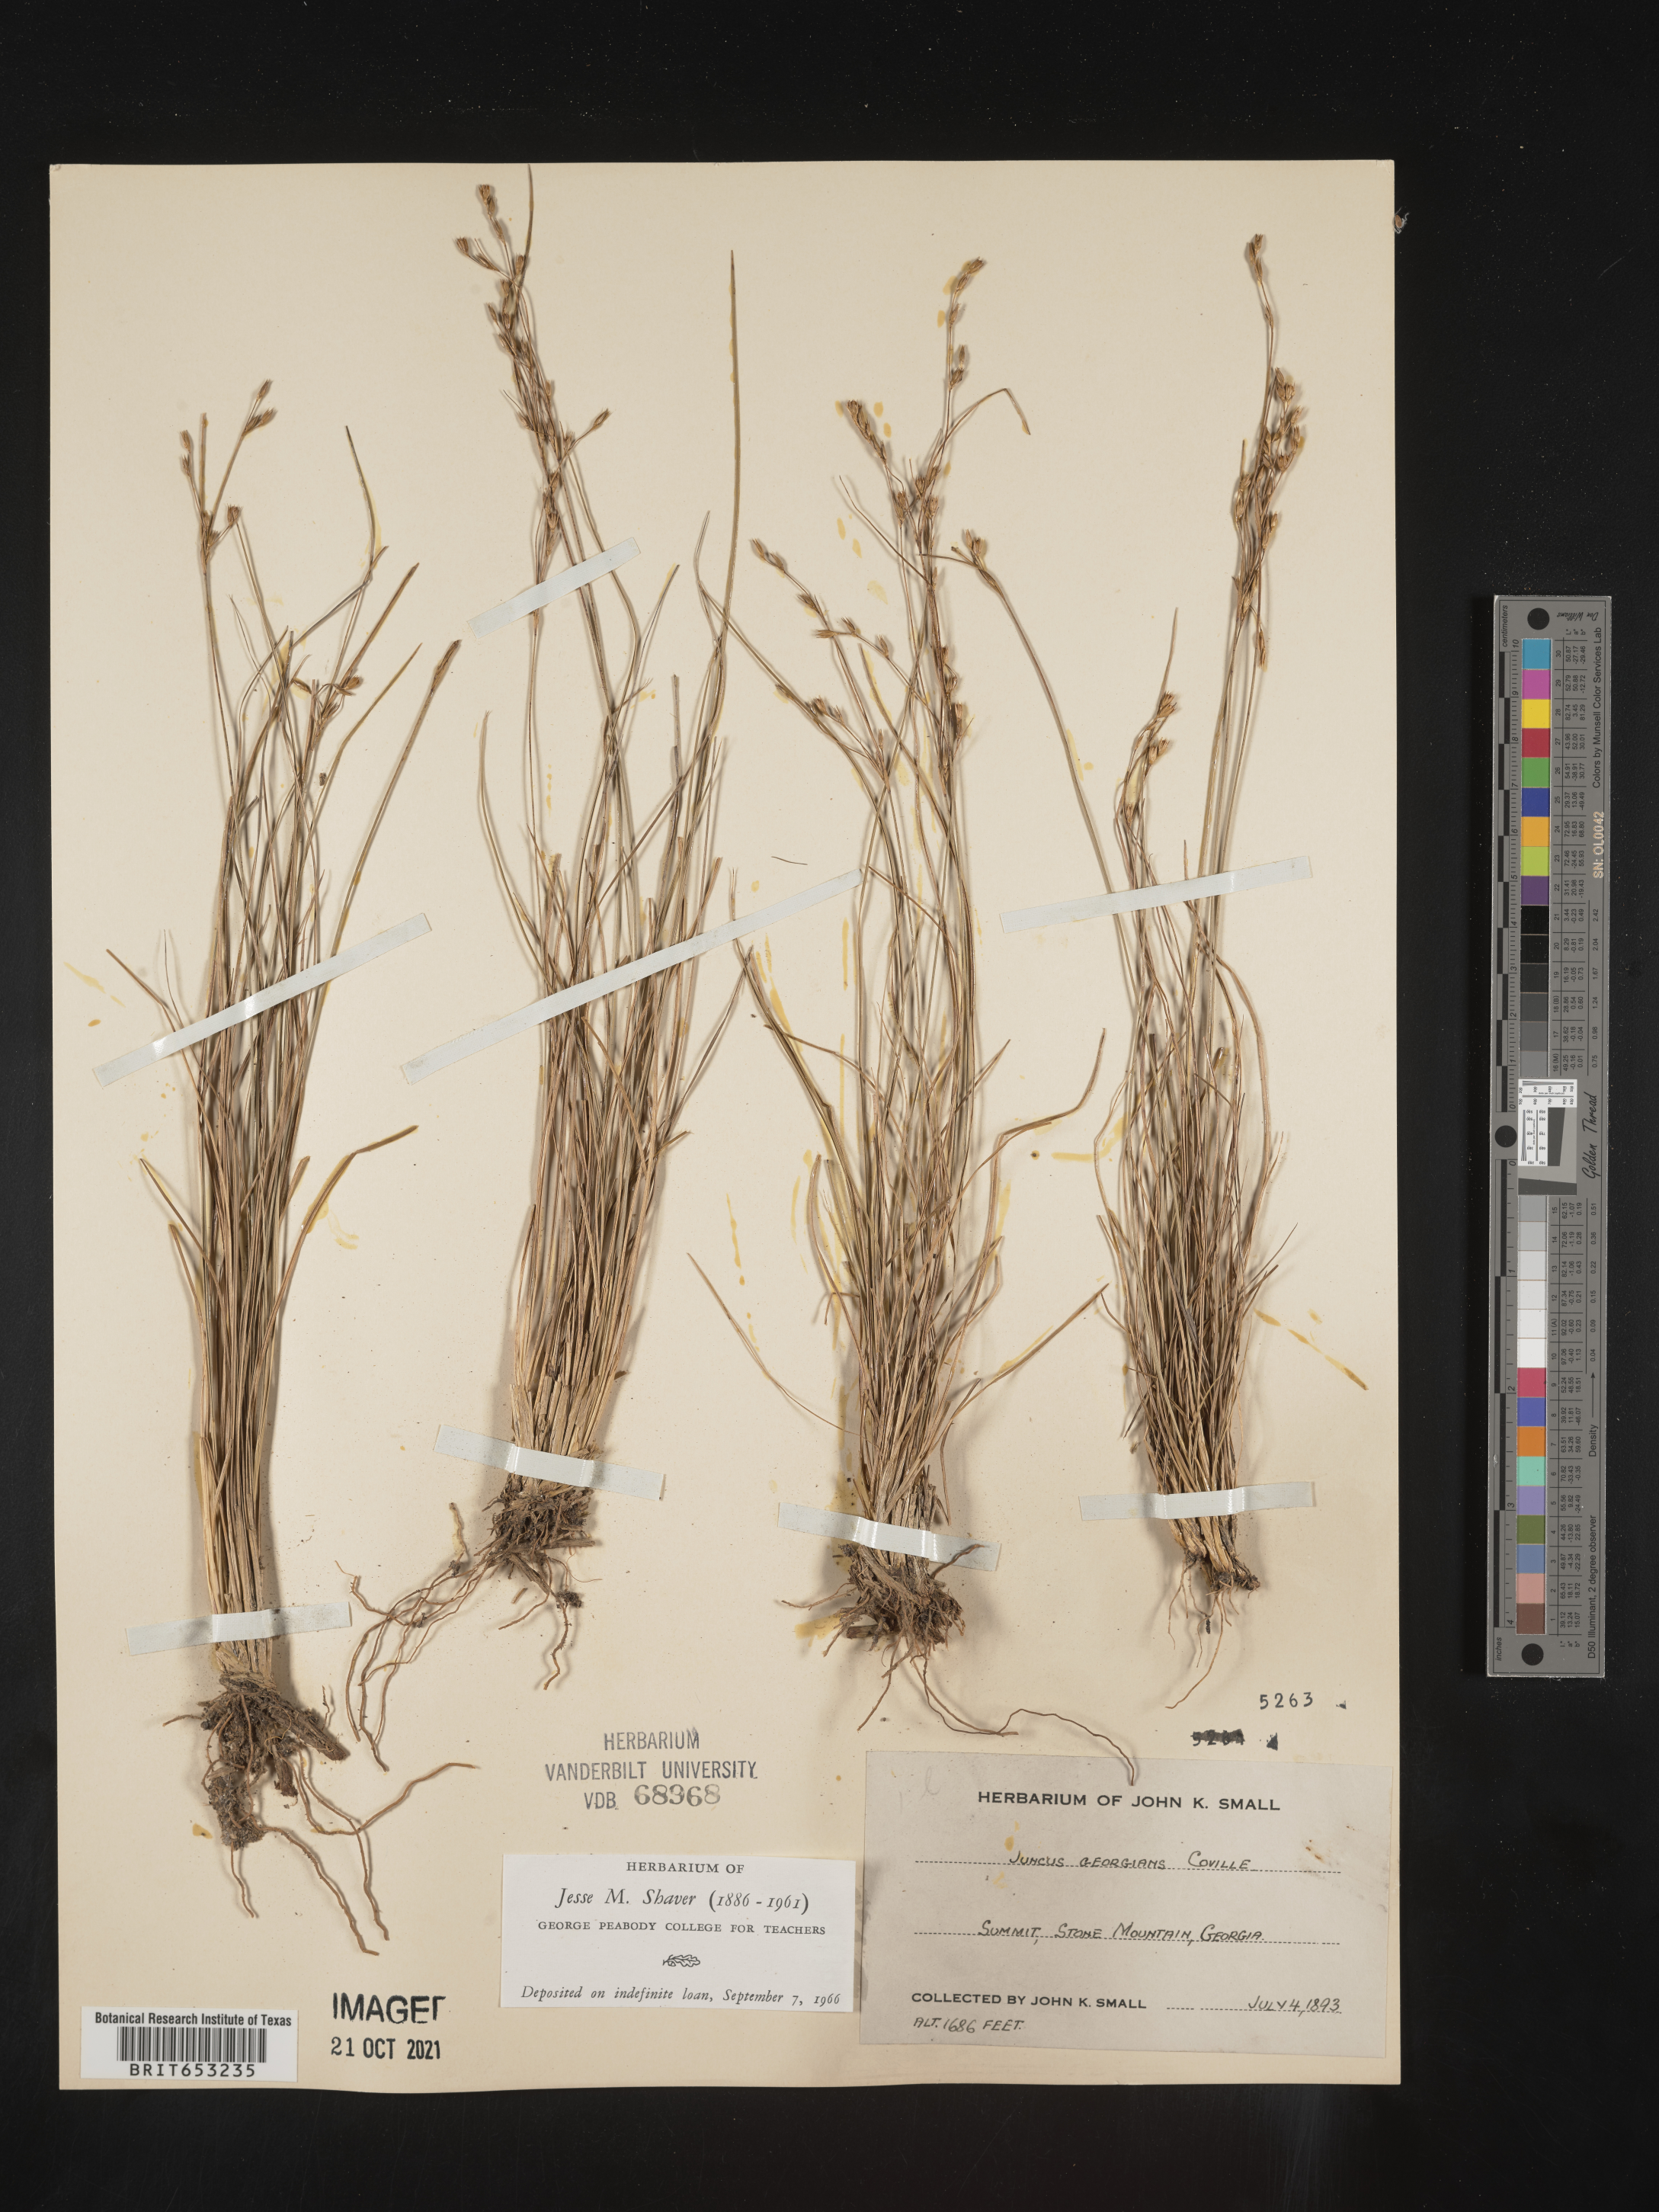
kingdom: Plantae
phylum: Tracheophyta
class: Liliopsida
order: Poales
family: Juncaceae
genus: Juncus
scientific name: Juncus georgianus
